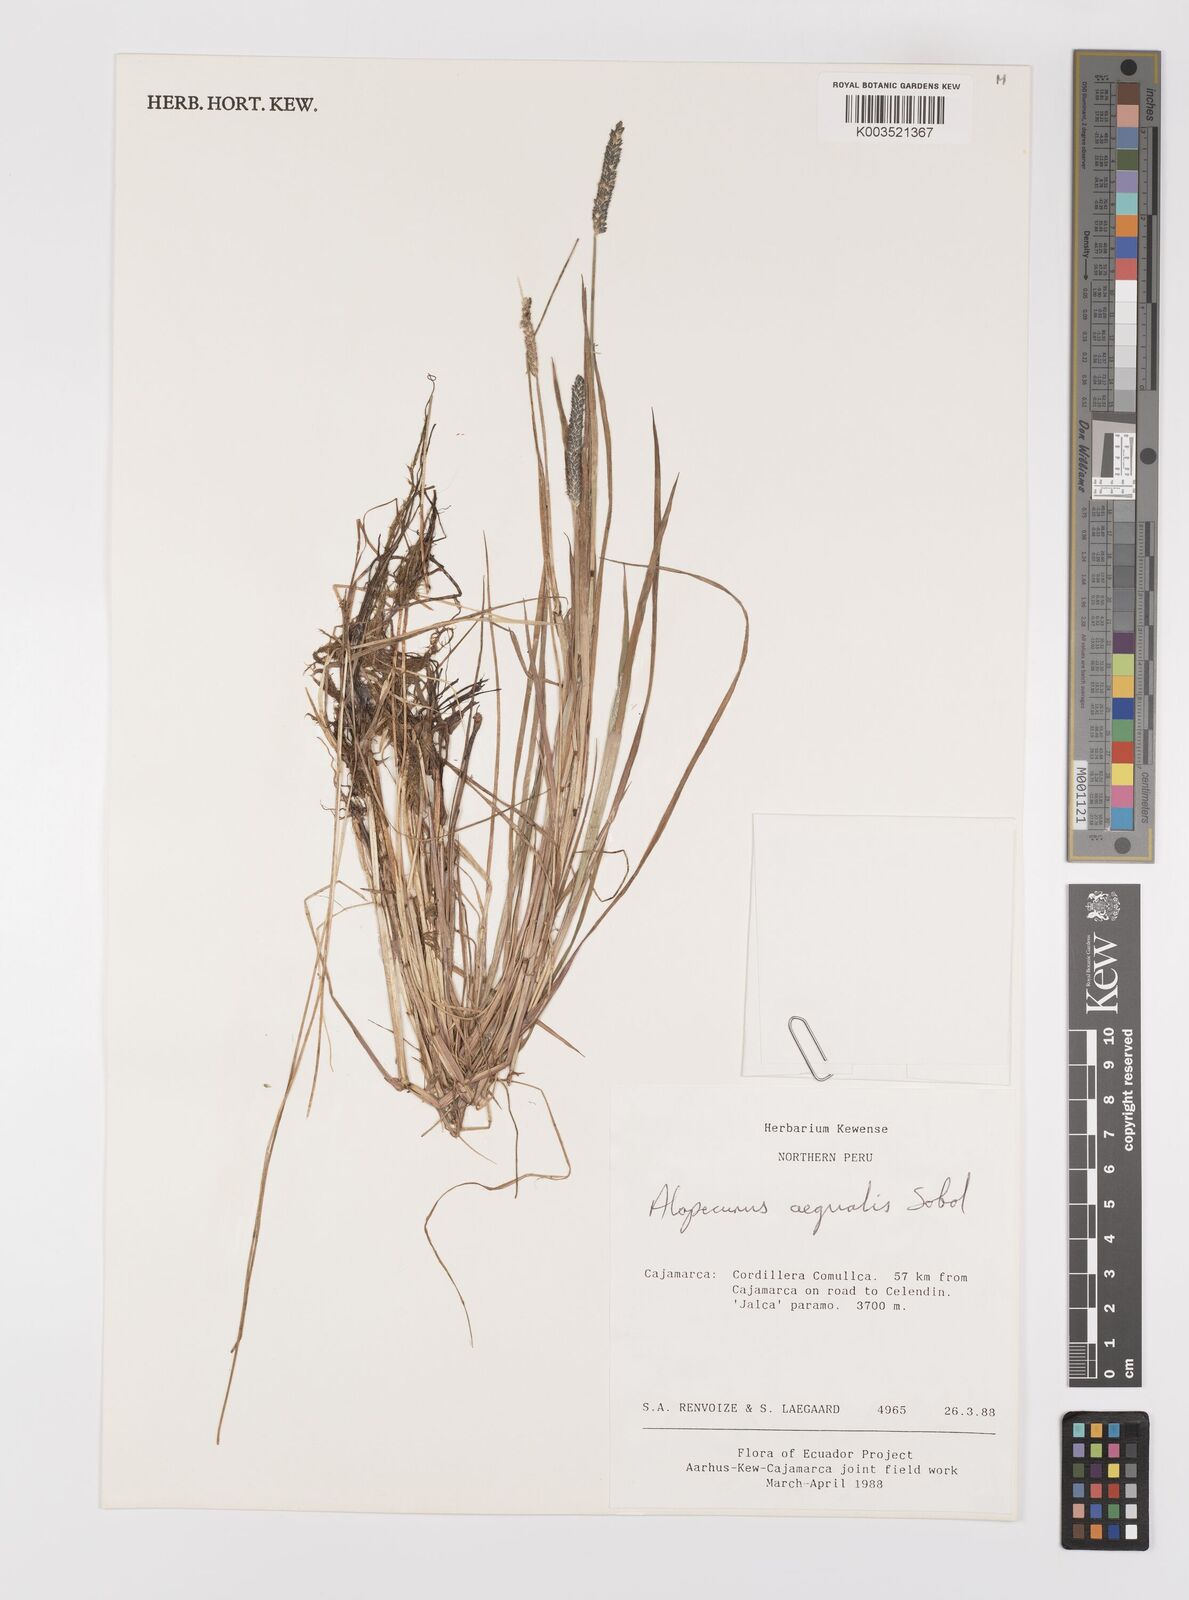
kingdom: Plantae
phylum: Tracheophyta
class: Liliopsida
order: Poales
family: Poaceae
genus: Alopecurus
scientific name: Alopecurus aequalis
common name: Orange foxtail
